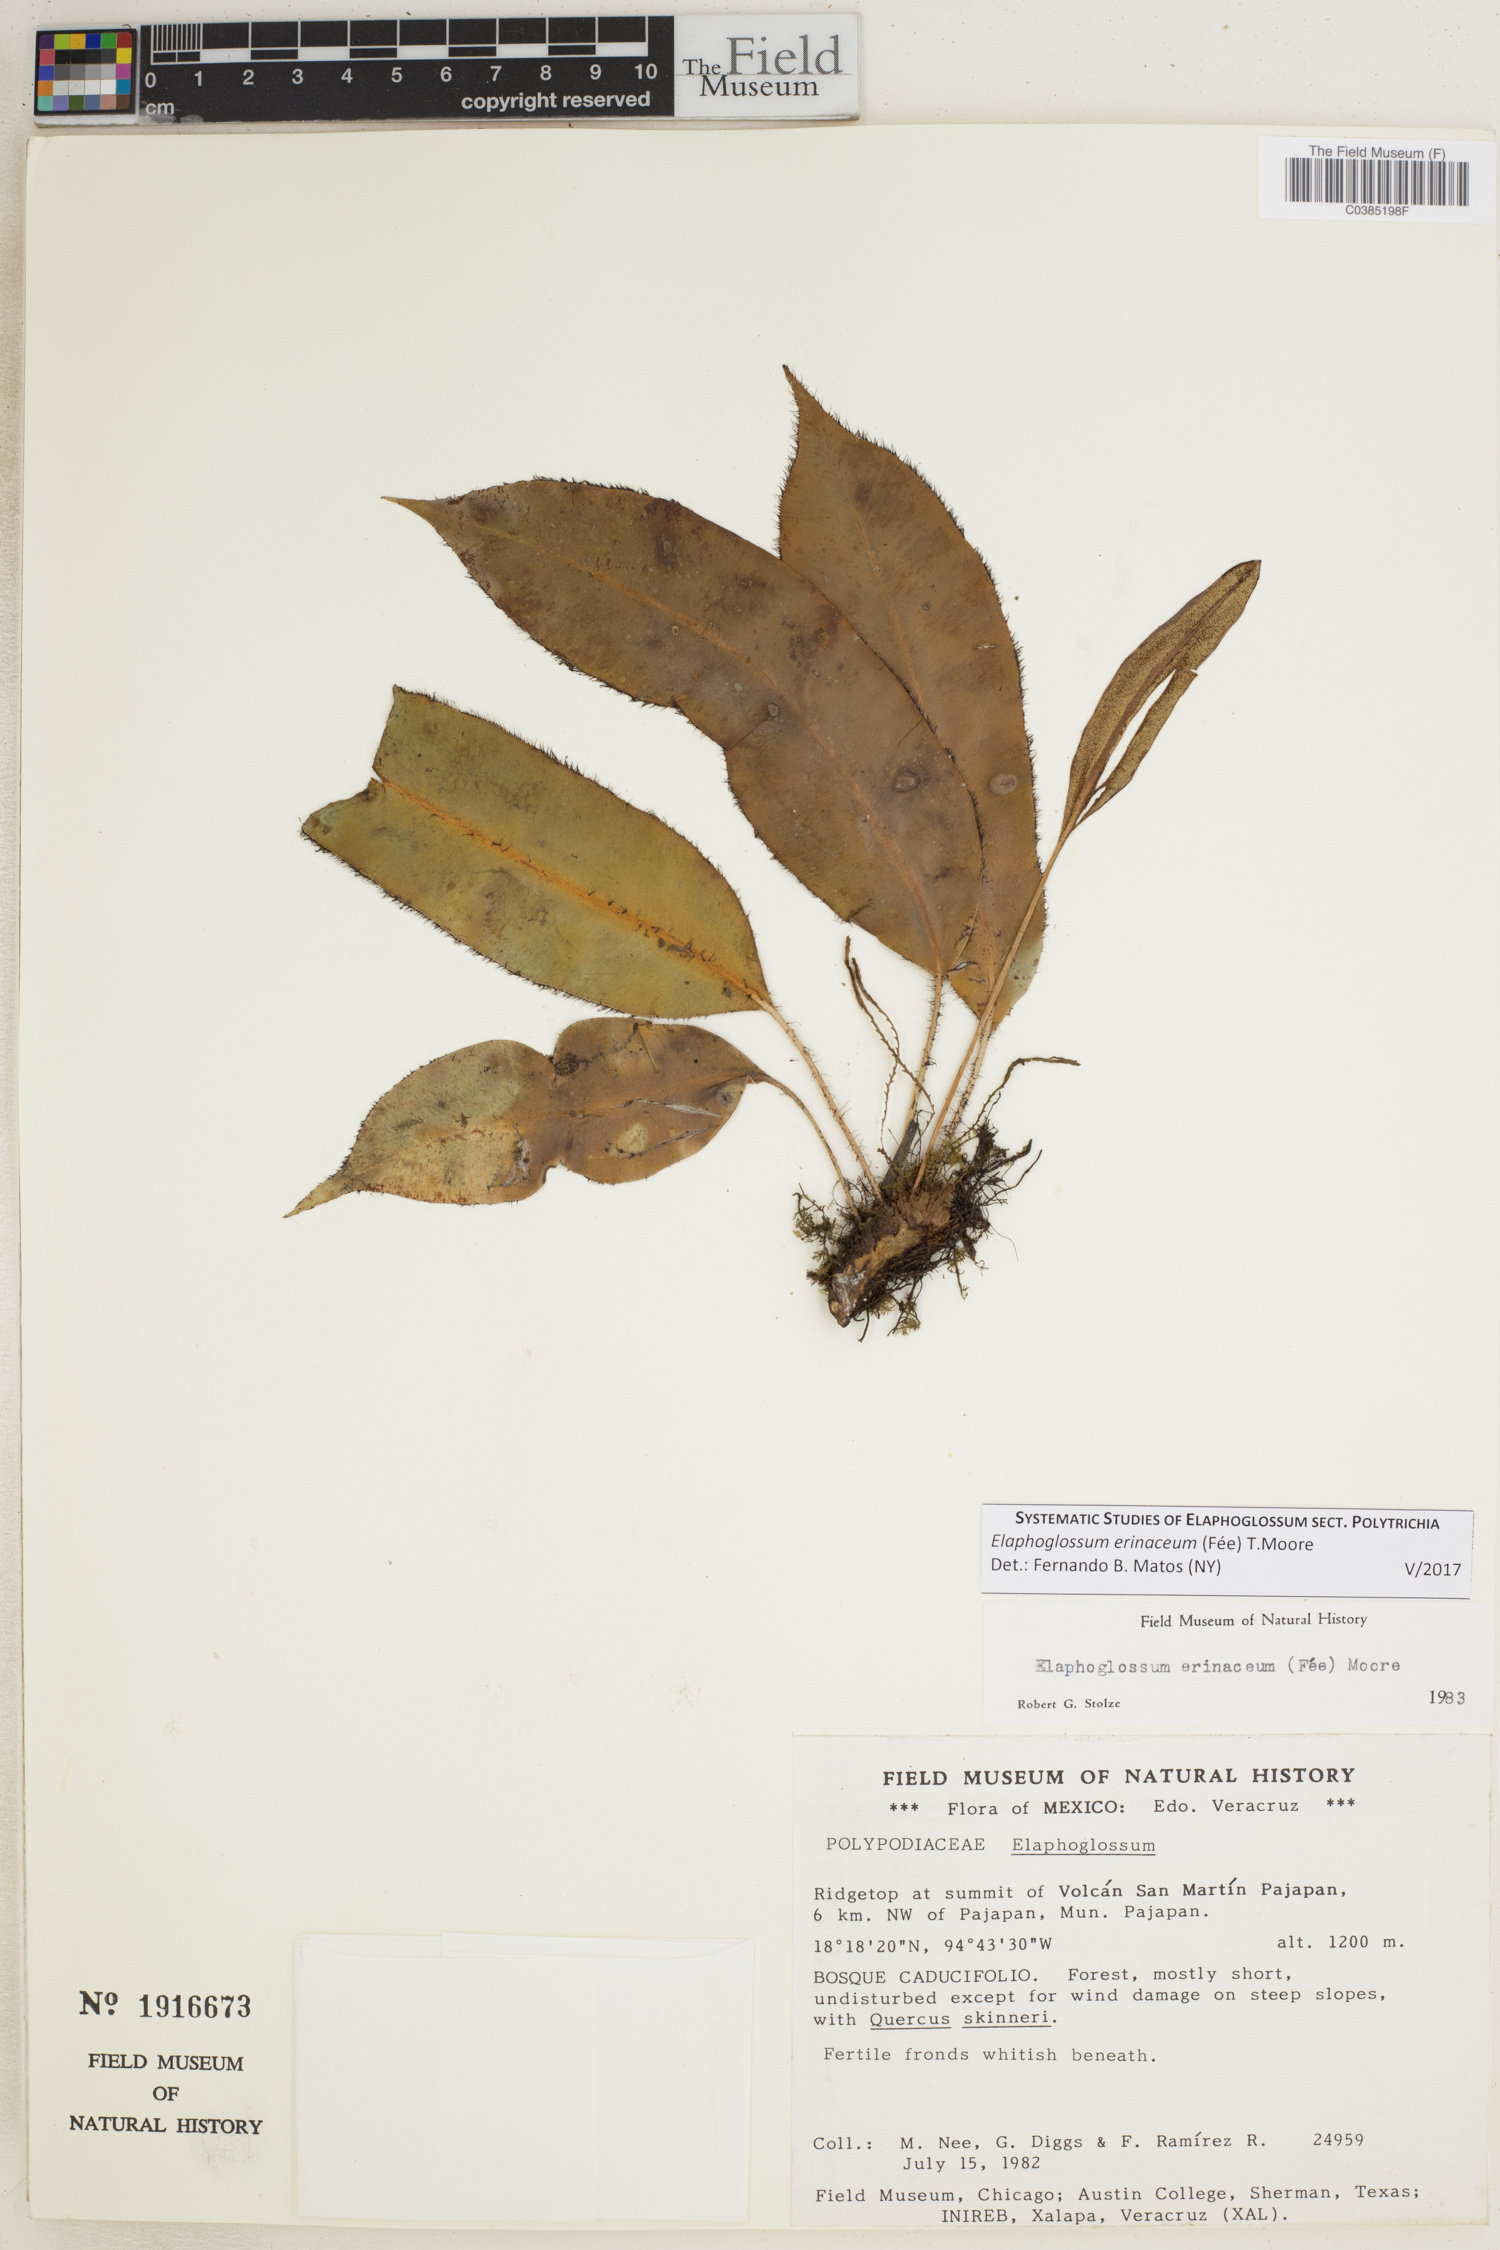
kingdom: Plantae
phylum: Tracheophyta
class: Polypodiopsida
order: Polypodiales
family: Dryopteridaceae
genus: Elaphoglossum
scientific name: Elaphoglossum erinaceum
